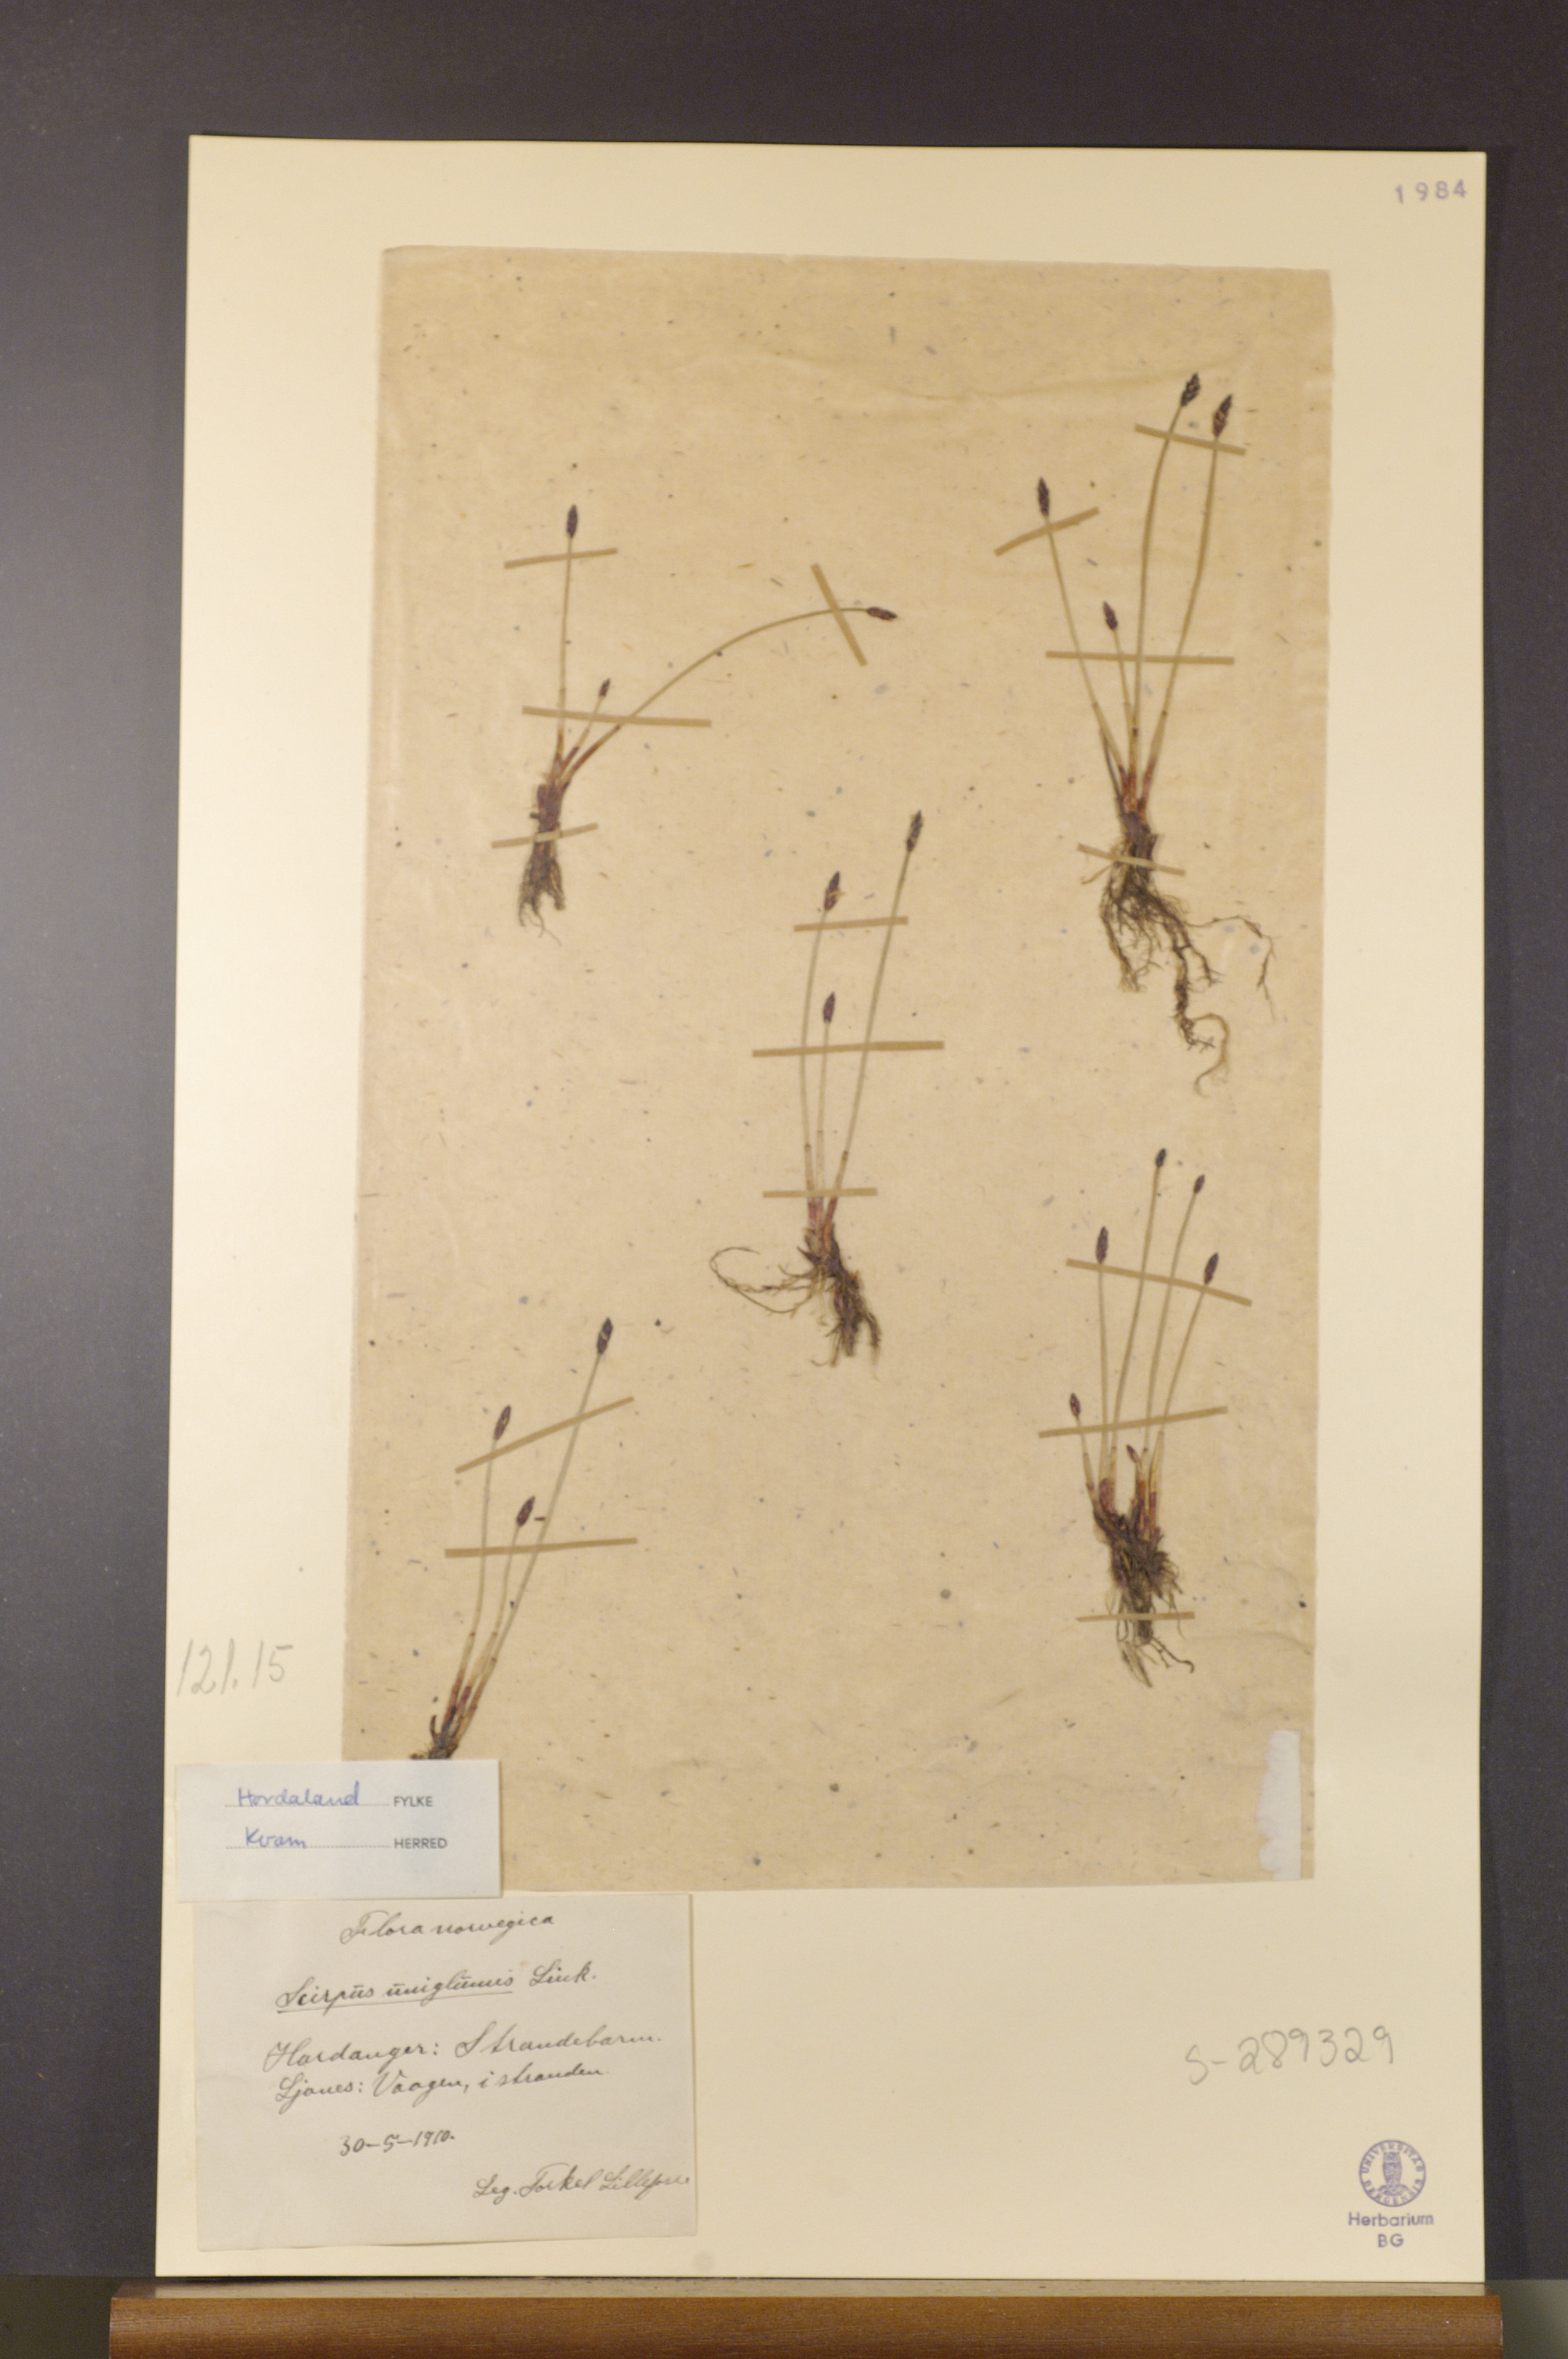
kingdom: Plantae
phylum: Tracheophyta
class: Liliopsida
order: Poales
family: Cyperaceae
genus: Eleocharis
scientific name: Eleocharis uniglumis
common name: Slender spike-rush
